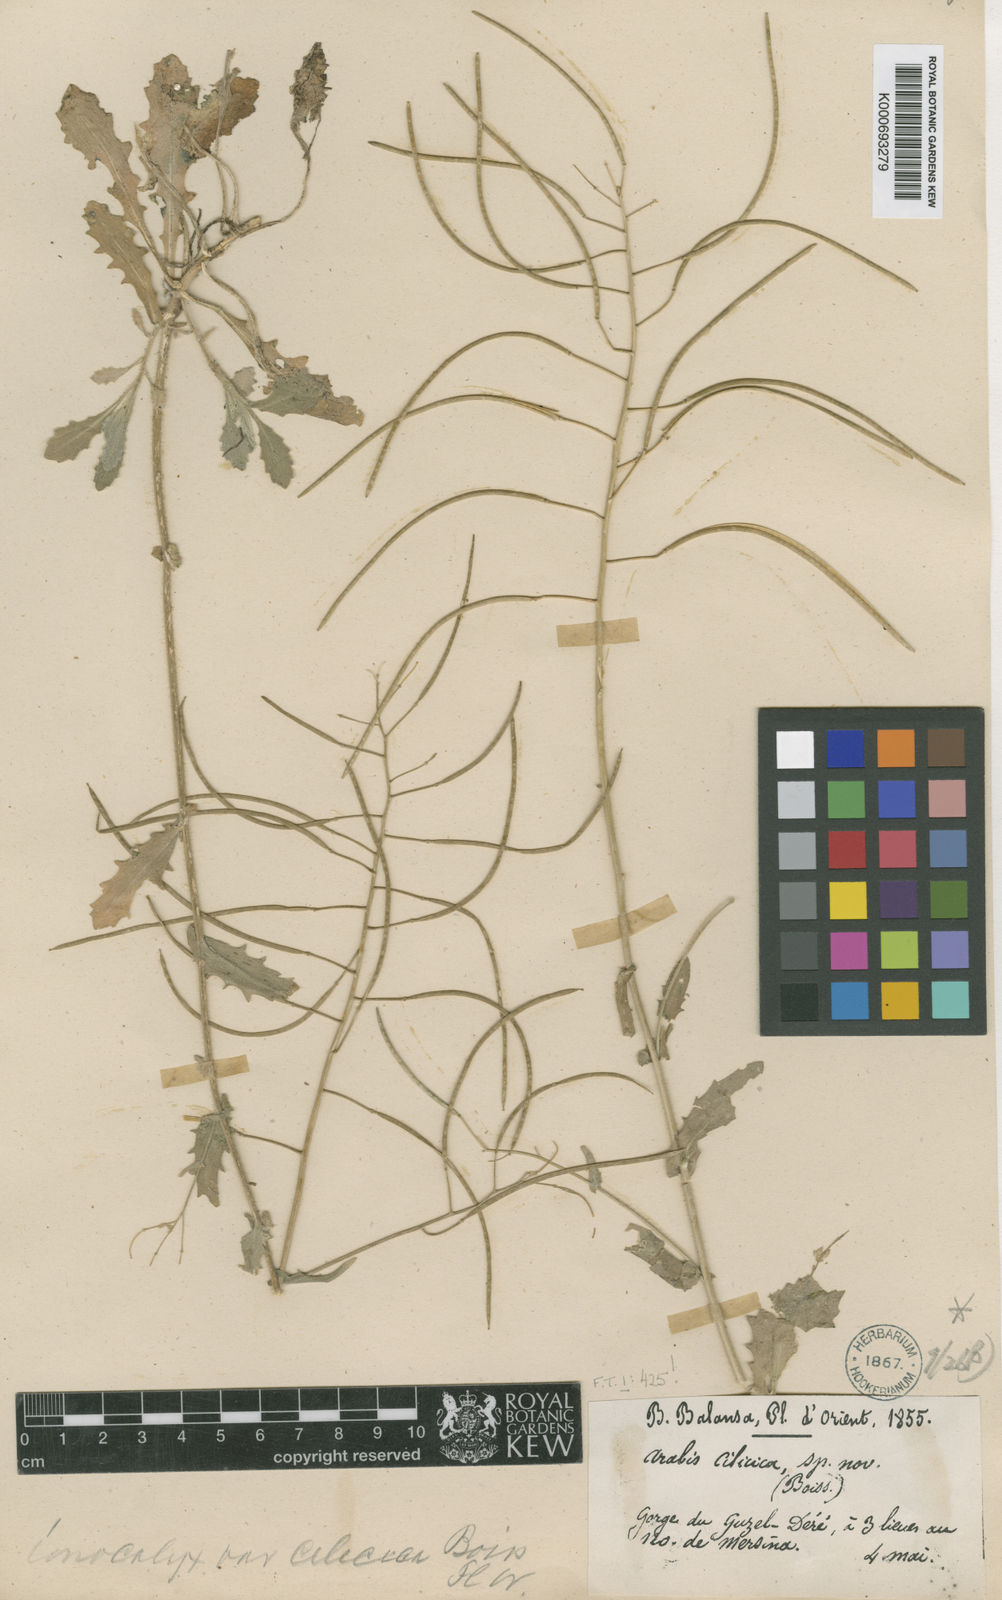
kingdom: Plantae
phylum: Tracheophyta
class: Magnoliopsida
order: Brassicales
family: Brassicaceae
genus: Arabis
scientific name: Arabis ionocalyx
